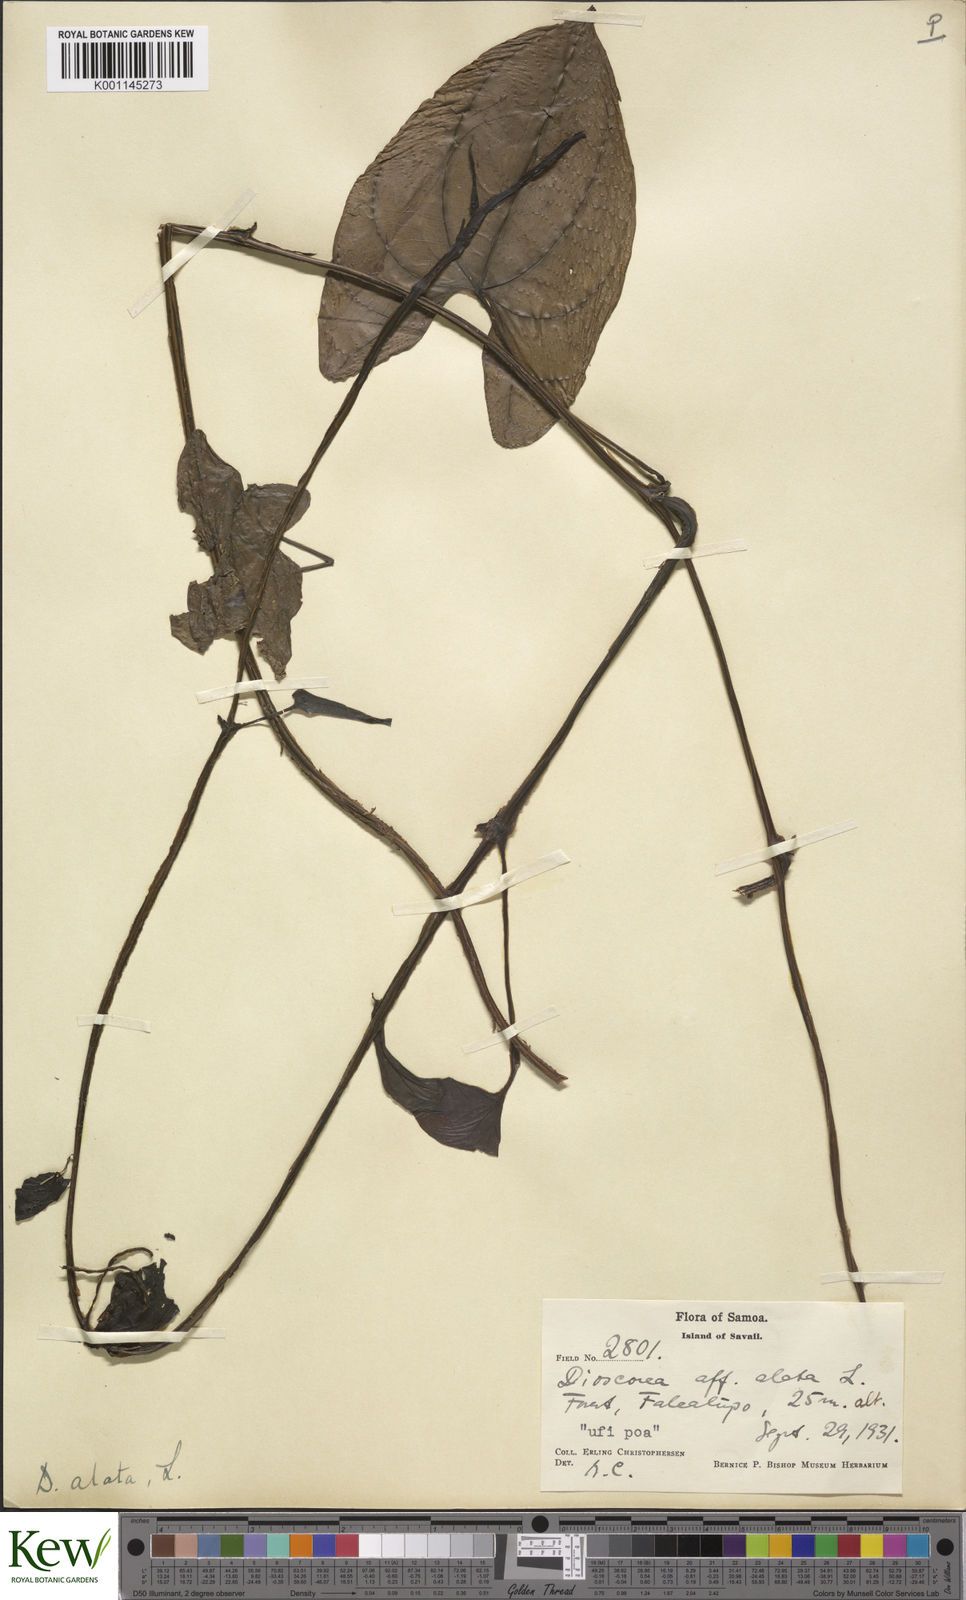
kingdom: Plantae
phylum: Tracheophyta
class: Liliopsida
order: Dioscoreales
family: Dioscoreaceae
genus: Dioscorea
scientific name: Dioscorea alata
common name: Water yam
